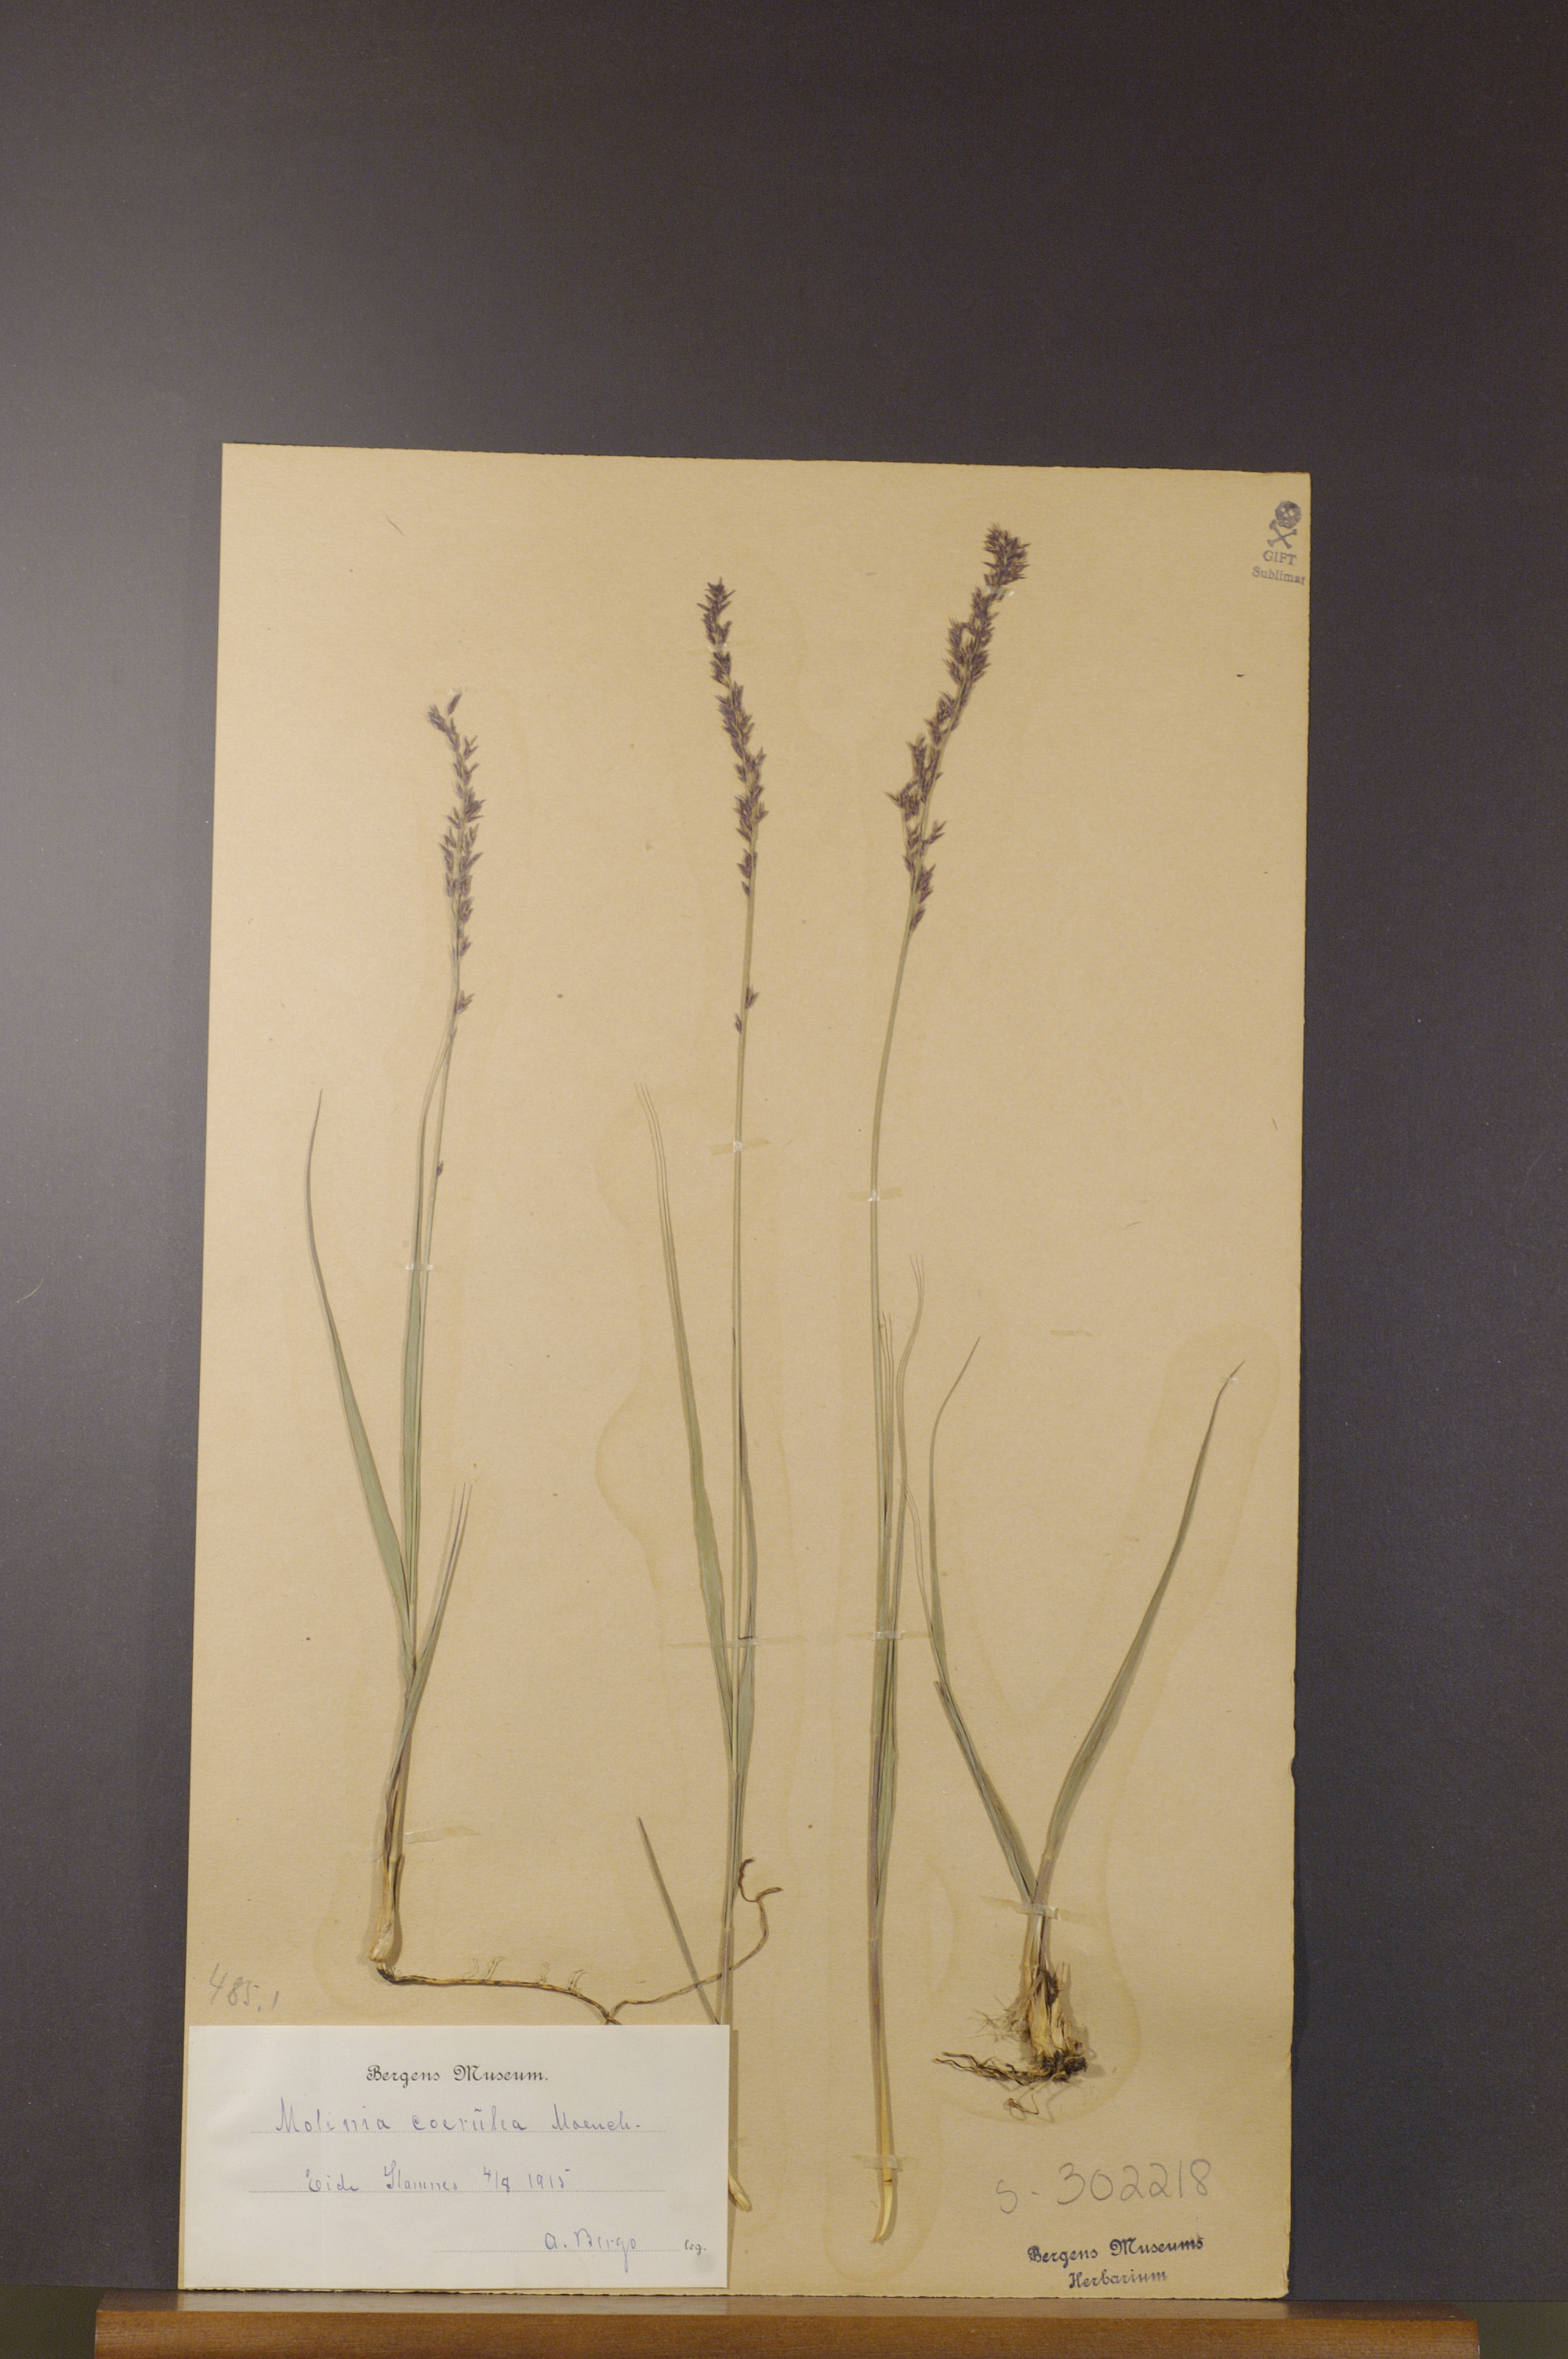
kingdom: Plantae
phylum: Tracheophyta
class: Liliopsida
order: Poales
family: Poaceae
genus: Molinia
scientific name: Molinia caerulea
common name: Purple moor-grass
